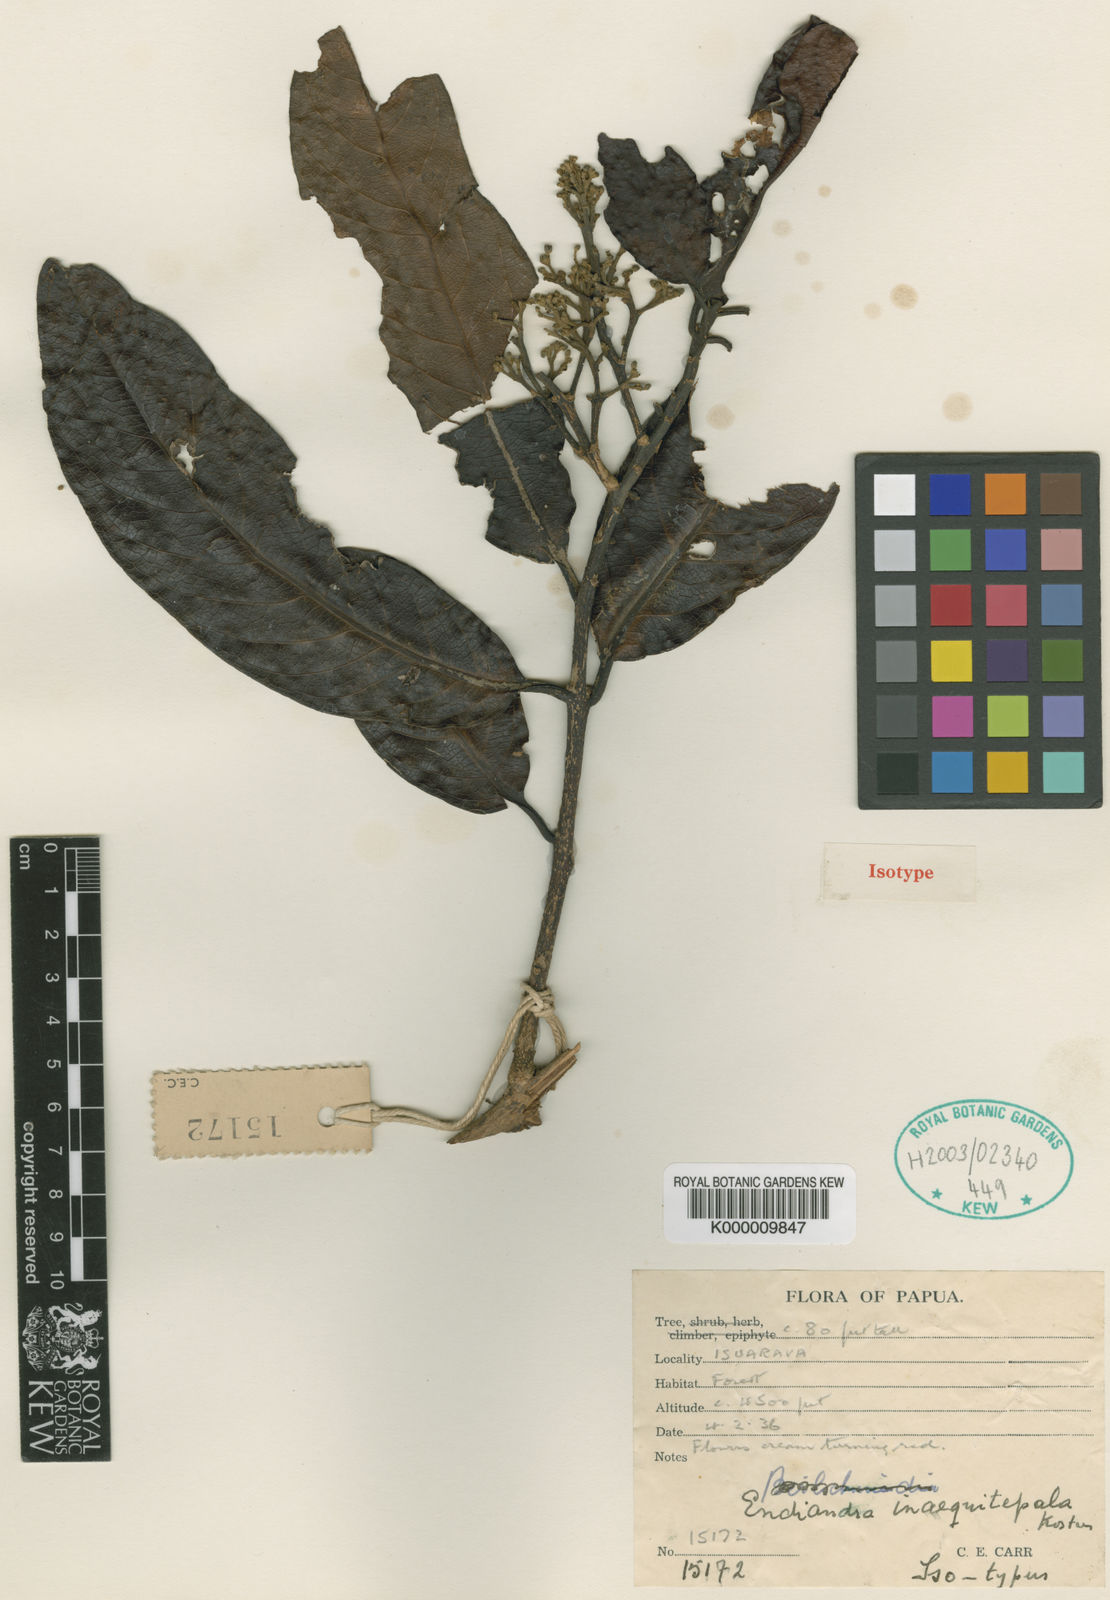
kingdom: Plantae
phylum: Tracheophyta
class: Magnoliopsida
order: Laurales
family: Lauraceae
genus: Endiandra
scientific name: Endiandra inaequitepala
